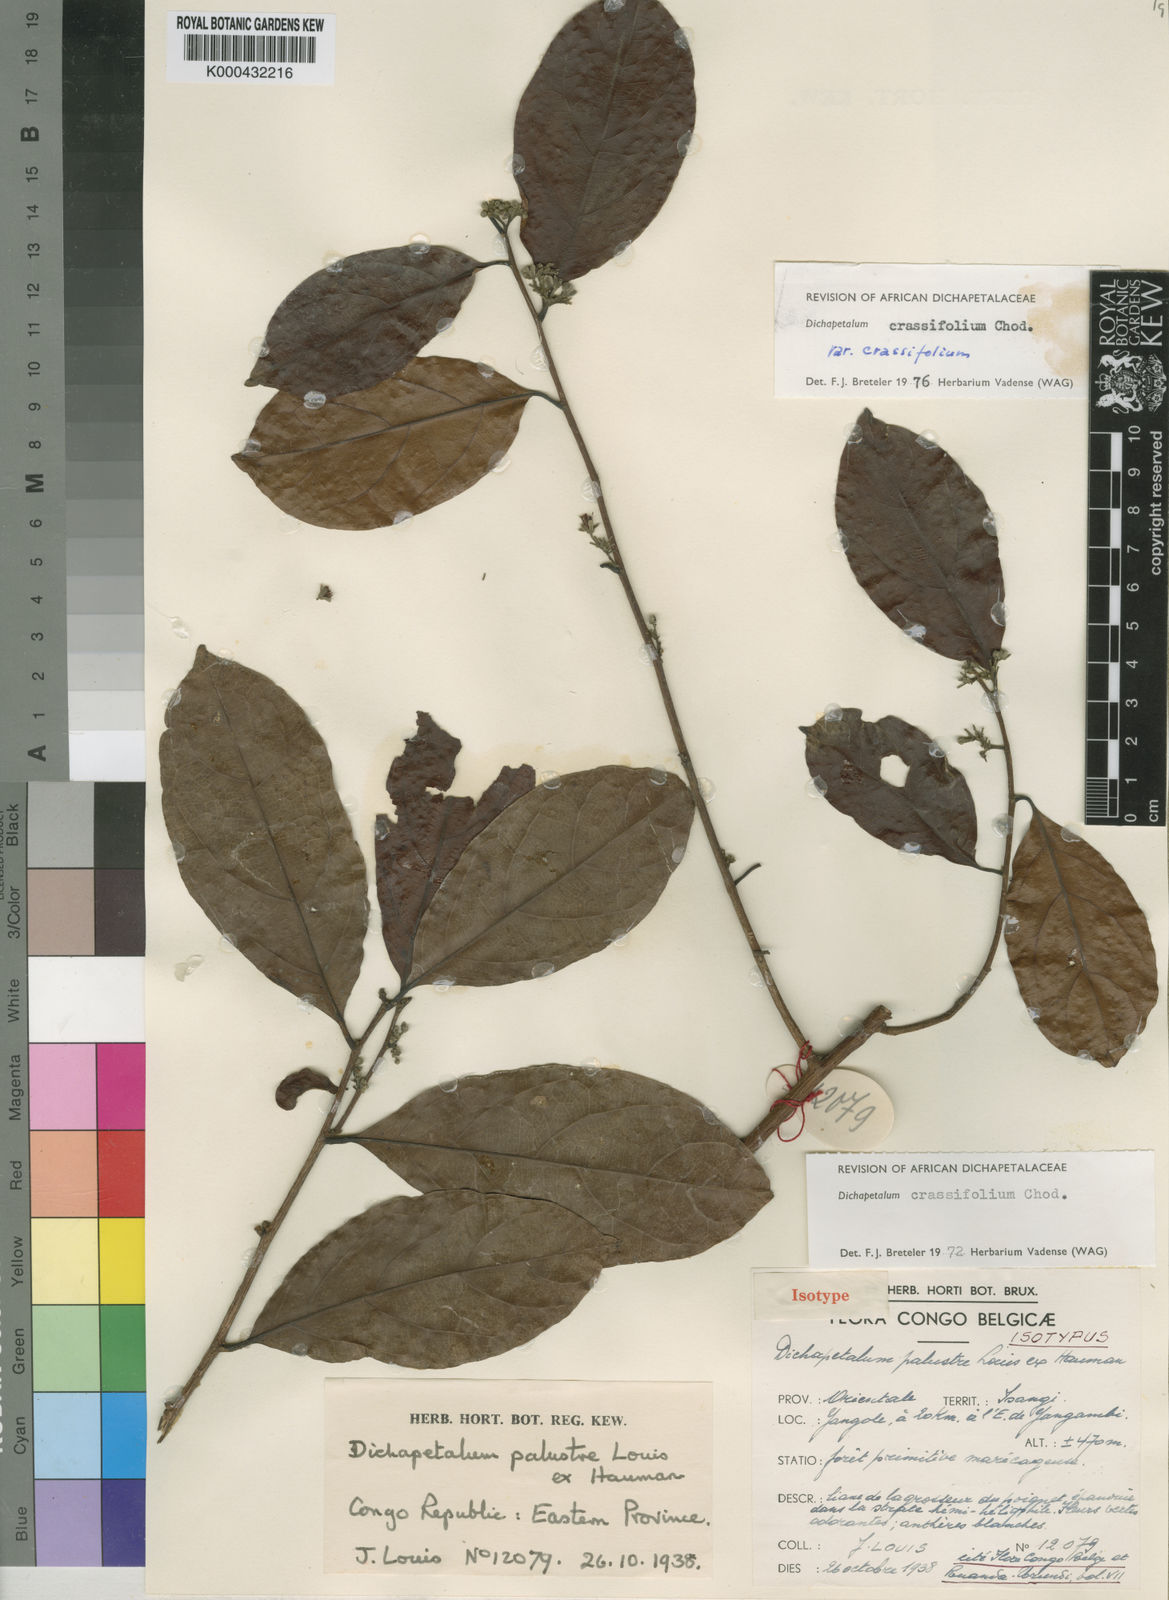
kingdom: Plantae
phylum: Tracheophyta
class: Magnoliopsida
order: Malpighiales
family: Dichapetalaceae
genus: Dichapetalum
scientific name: Dichapetalum crassifolium
